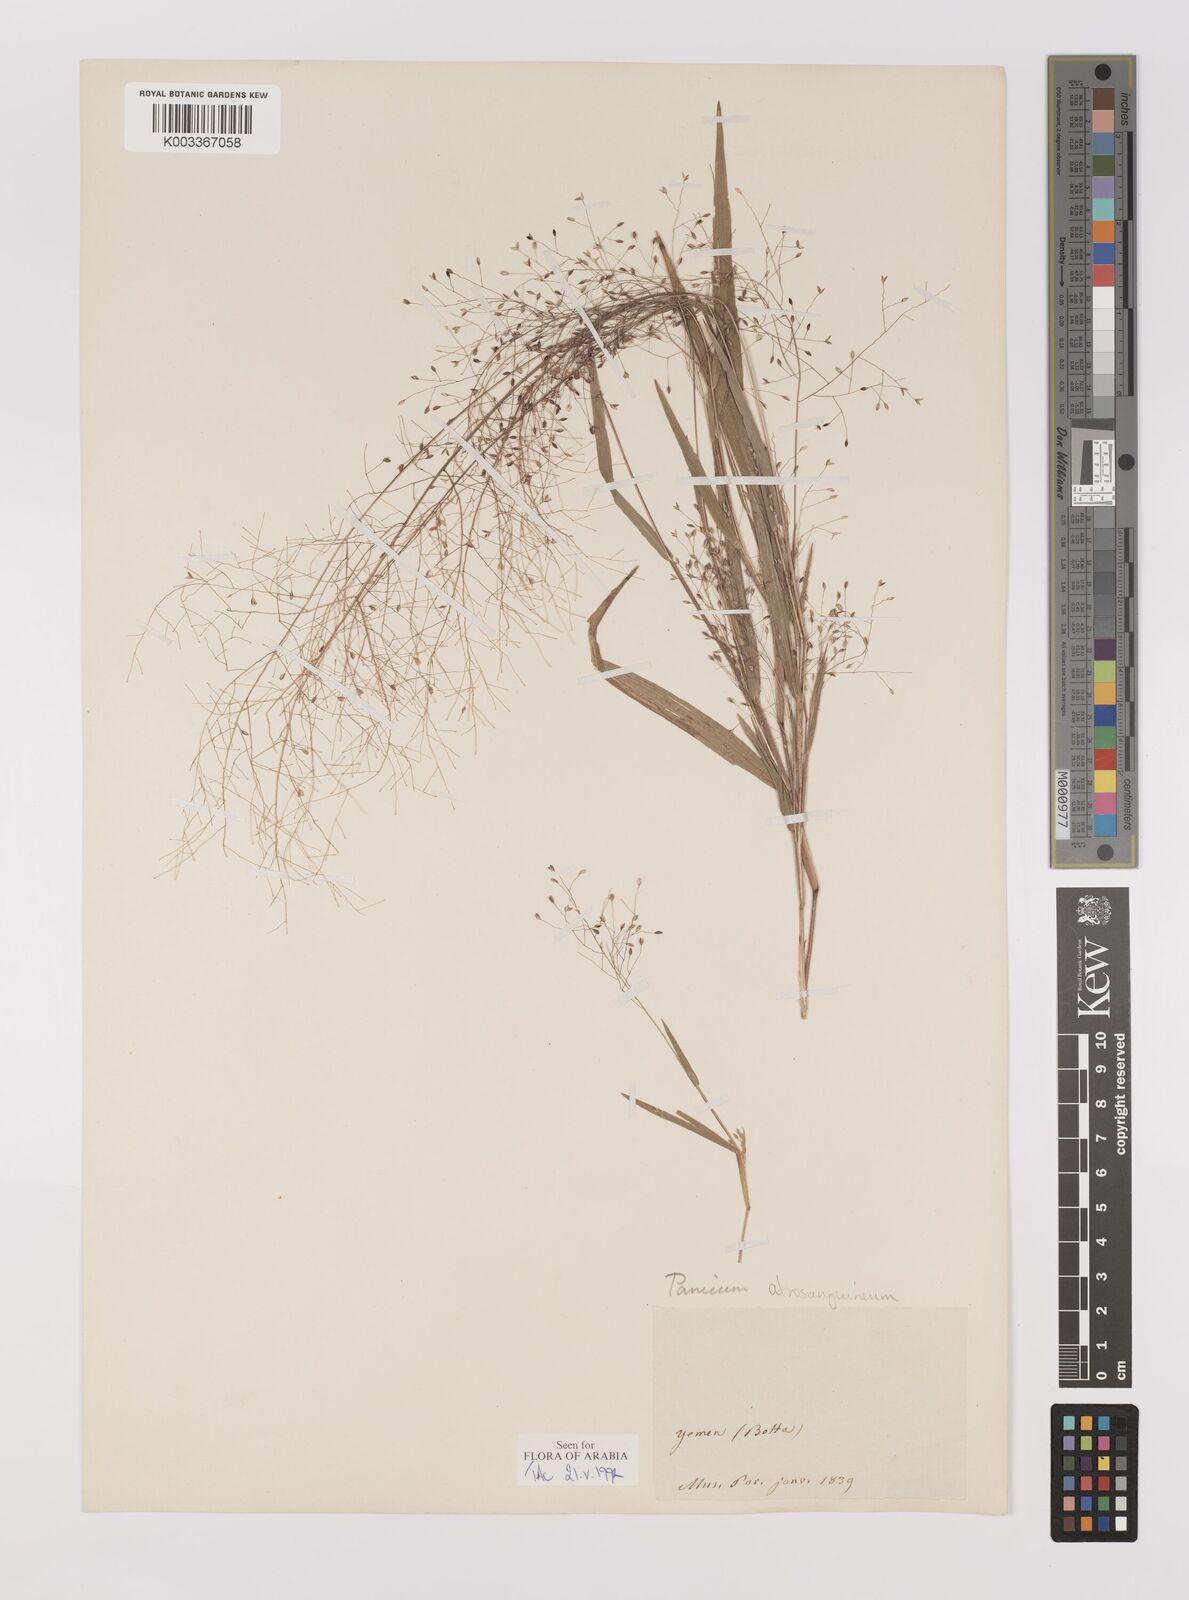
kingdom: Plantae
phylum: Tracheophyta
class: Liliopsida
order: Poales
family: Poaceae
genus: Panicum
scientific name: Panicum atrosanguineum
